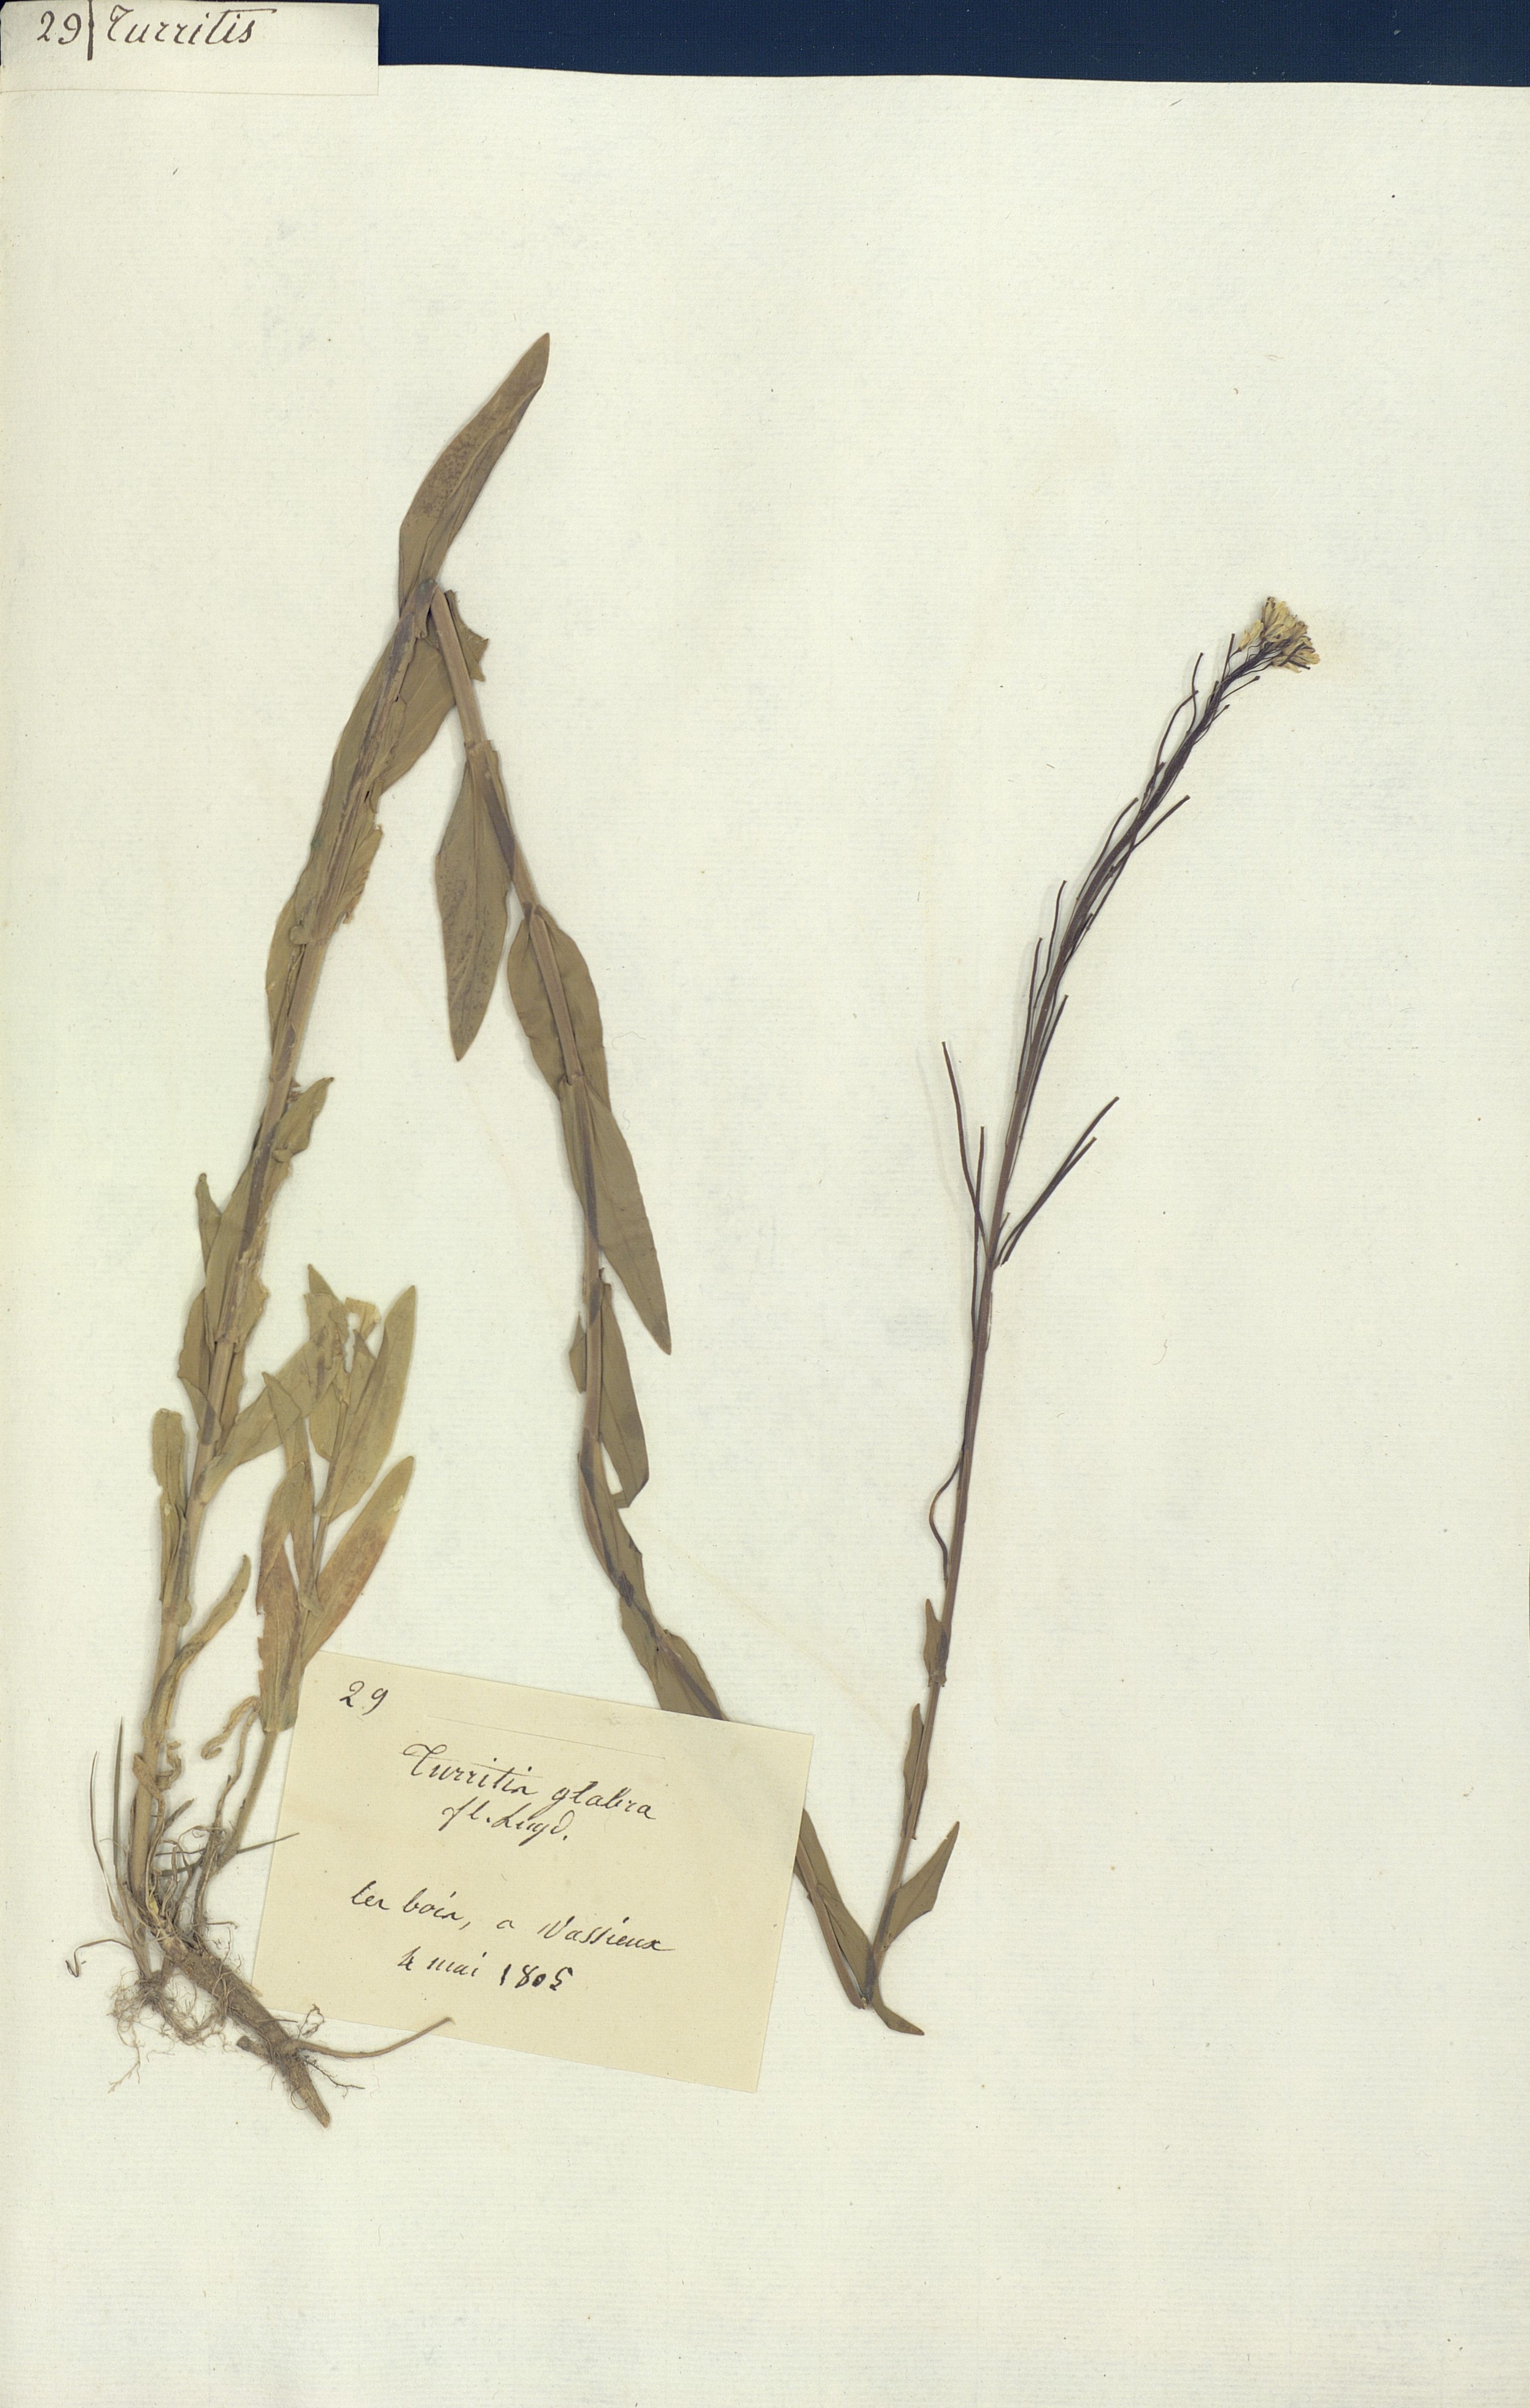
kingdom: Plantae
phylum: Tracheophyta
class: Magnoliopsida
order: Brassicales
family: Brassicaceae
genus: Turritis
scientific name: Turritis glabra
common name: Tower rockcress
